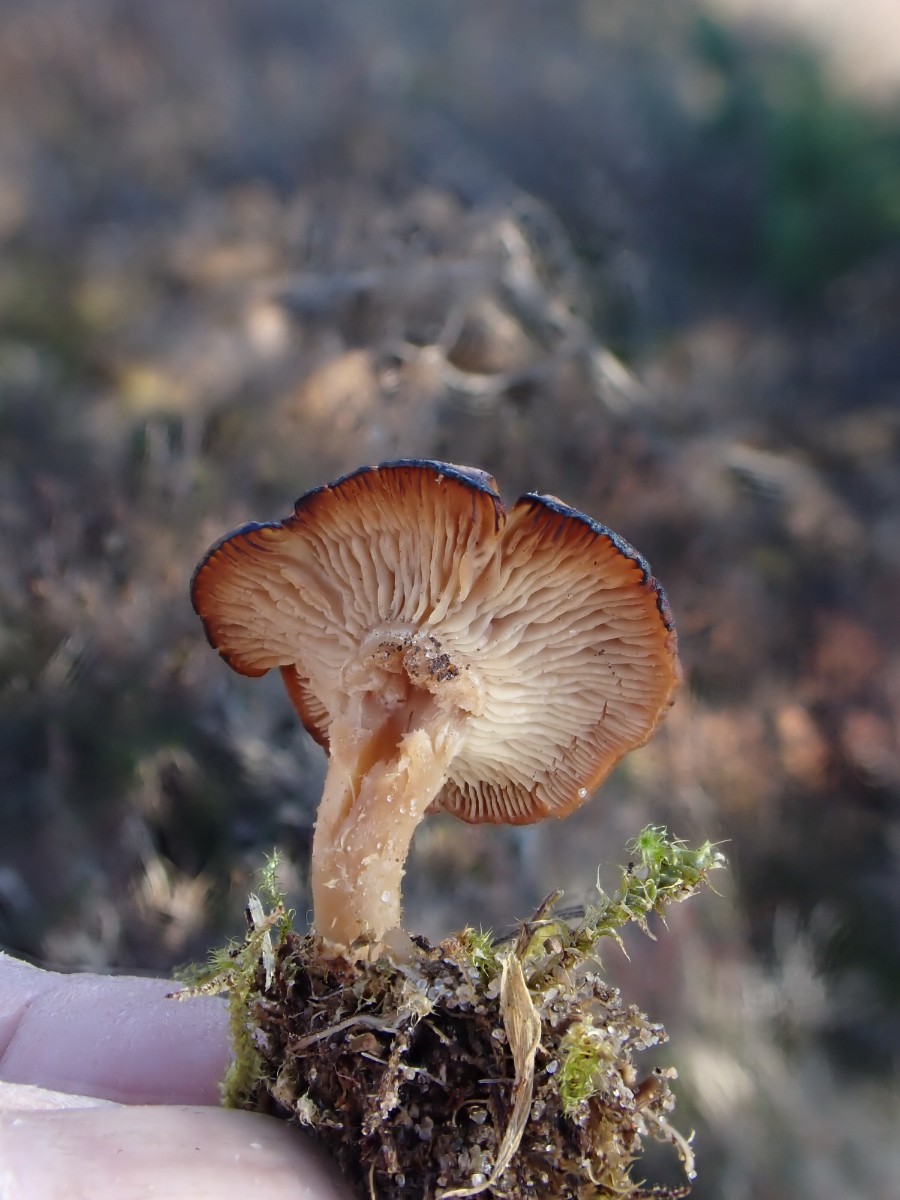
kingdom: Fungi
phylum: Basidiomycota
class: Agaricomycetes
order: Agaricales
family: Tricholomataceae
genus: Rhizocybe
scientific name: Rhizocybe vermicularis
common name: hyfestrengs-tragthat
